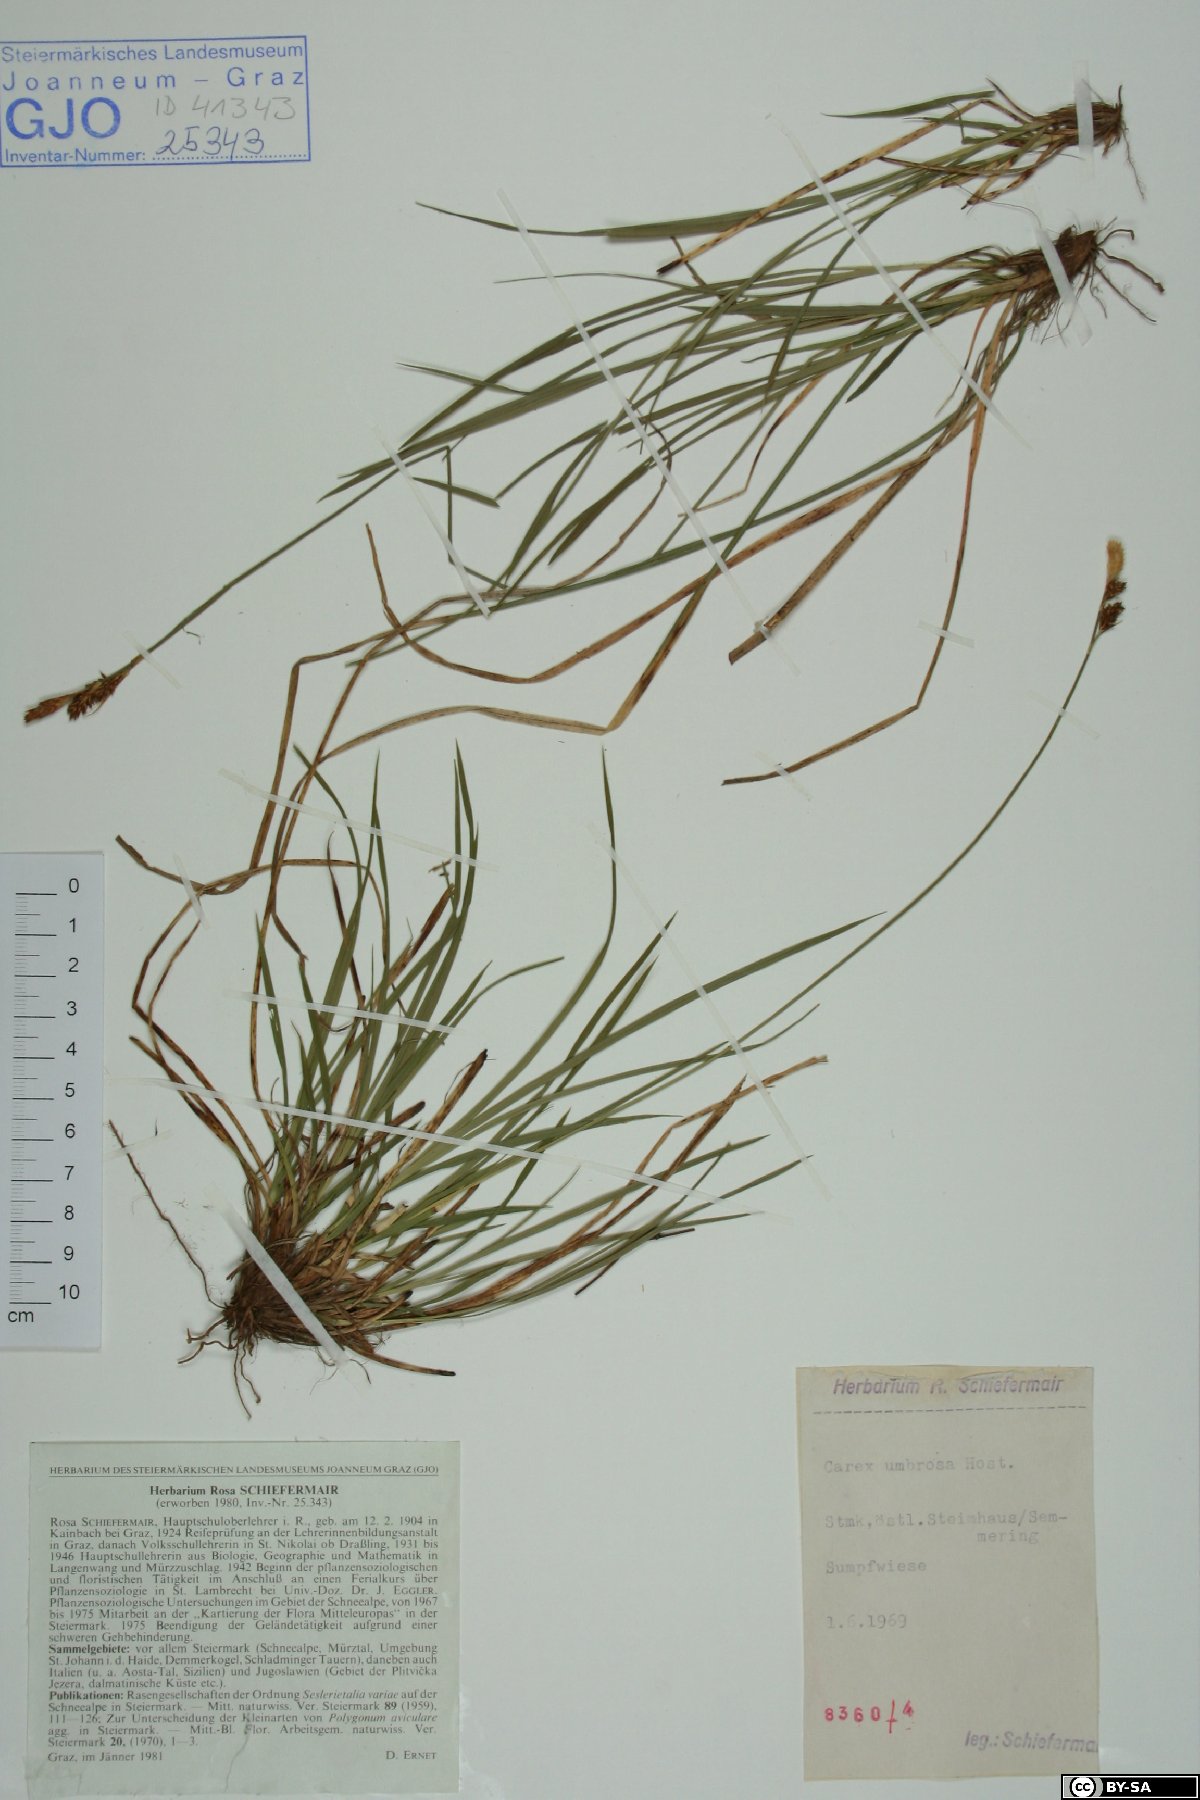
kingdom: Plantae
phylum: Tracheophyta
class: Liliopsida
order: Poales
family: Cyperaceae
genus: Carex
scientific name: Carex umbrosa
